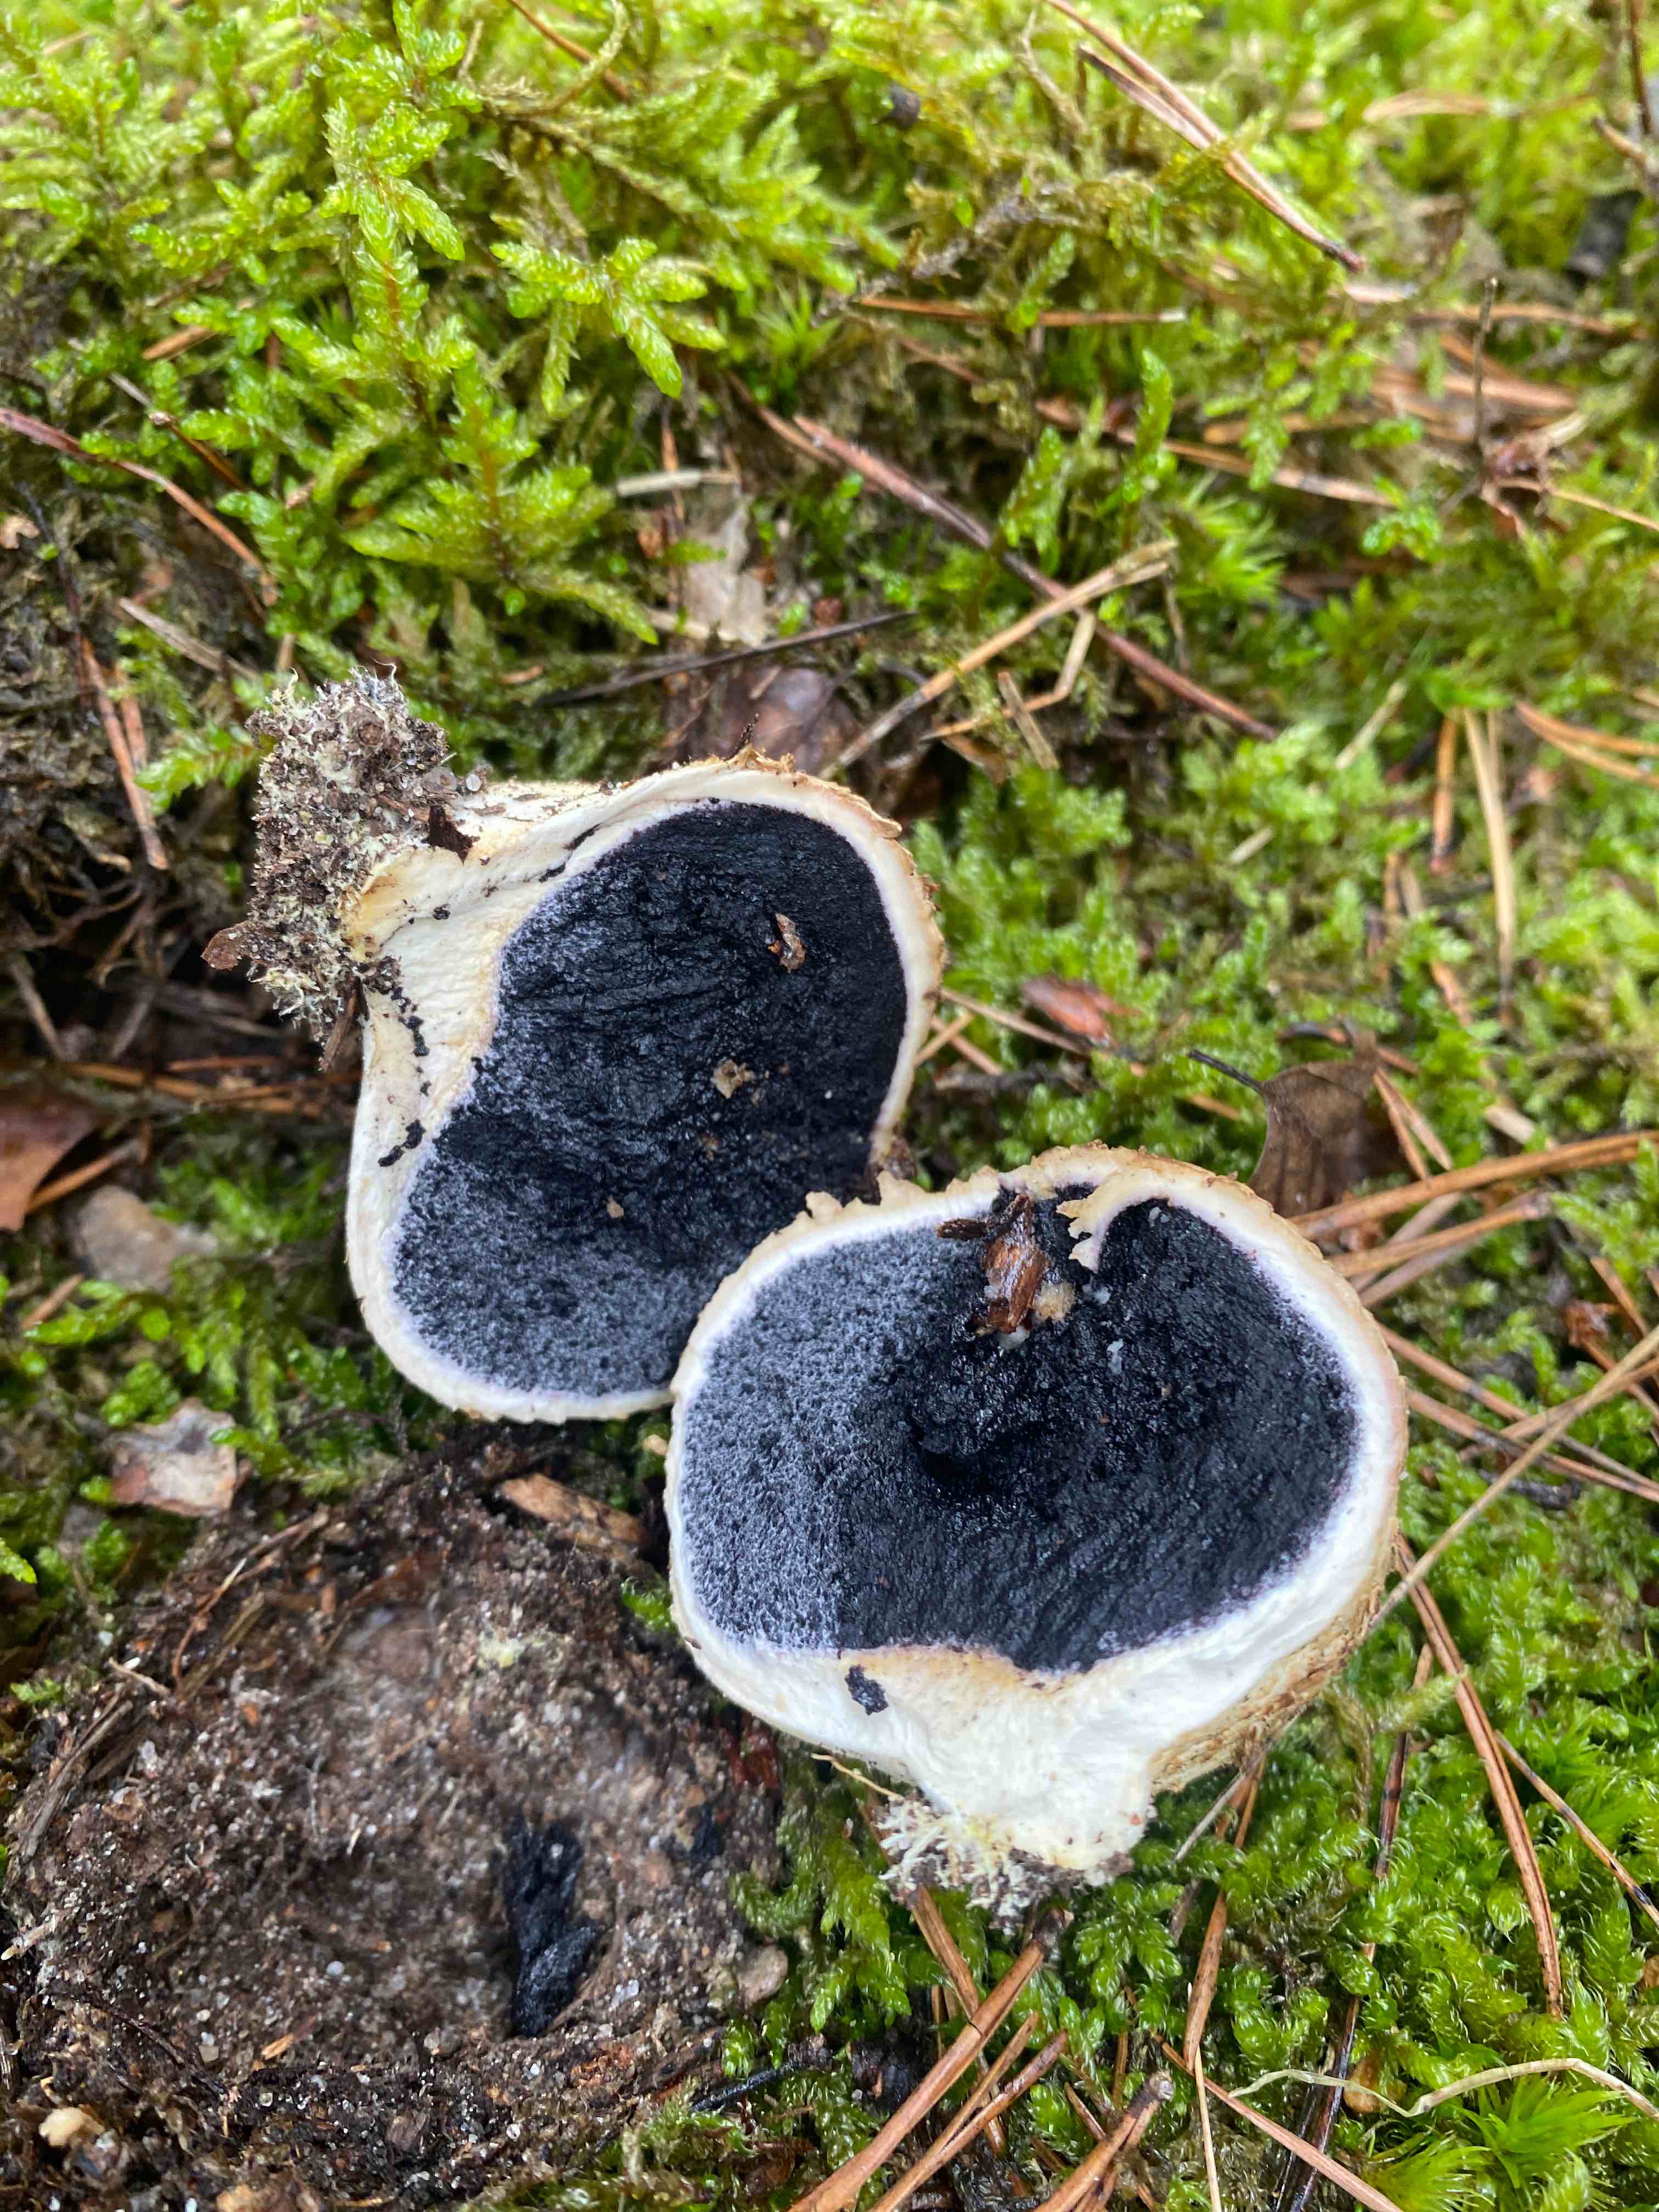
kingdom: Fungi
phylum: Basidiomycota
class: Agaricomycetes
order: Boletales
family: Sclerodermataceae
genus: Scleroderma
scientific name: Scleroderma citrinum
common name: almindelig bruskbold
